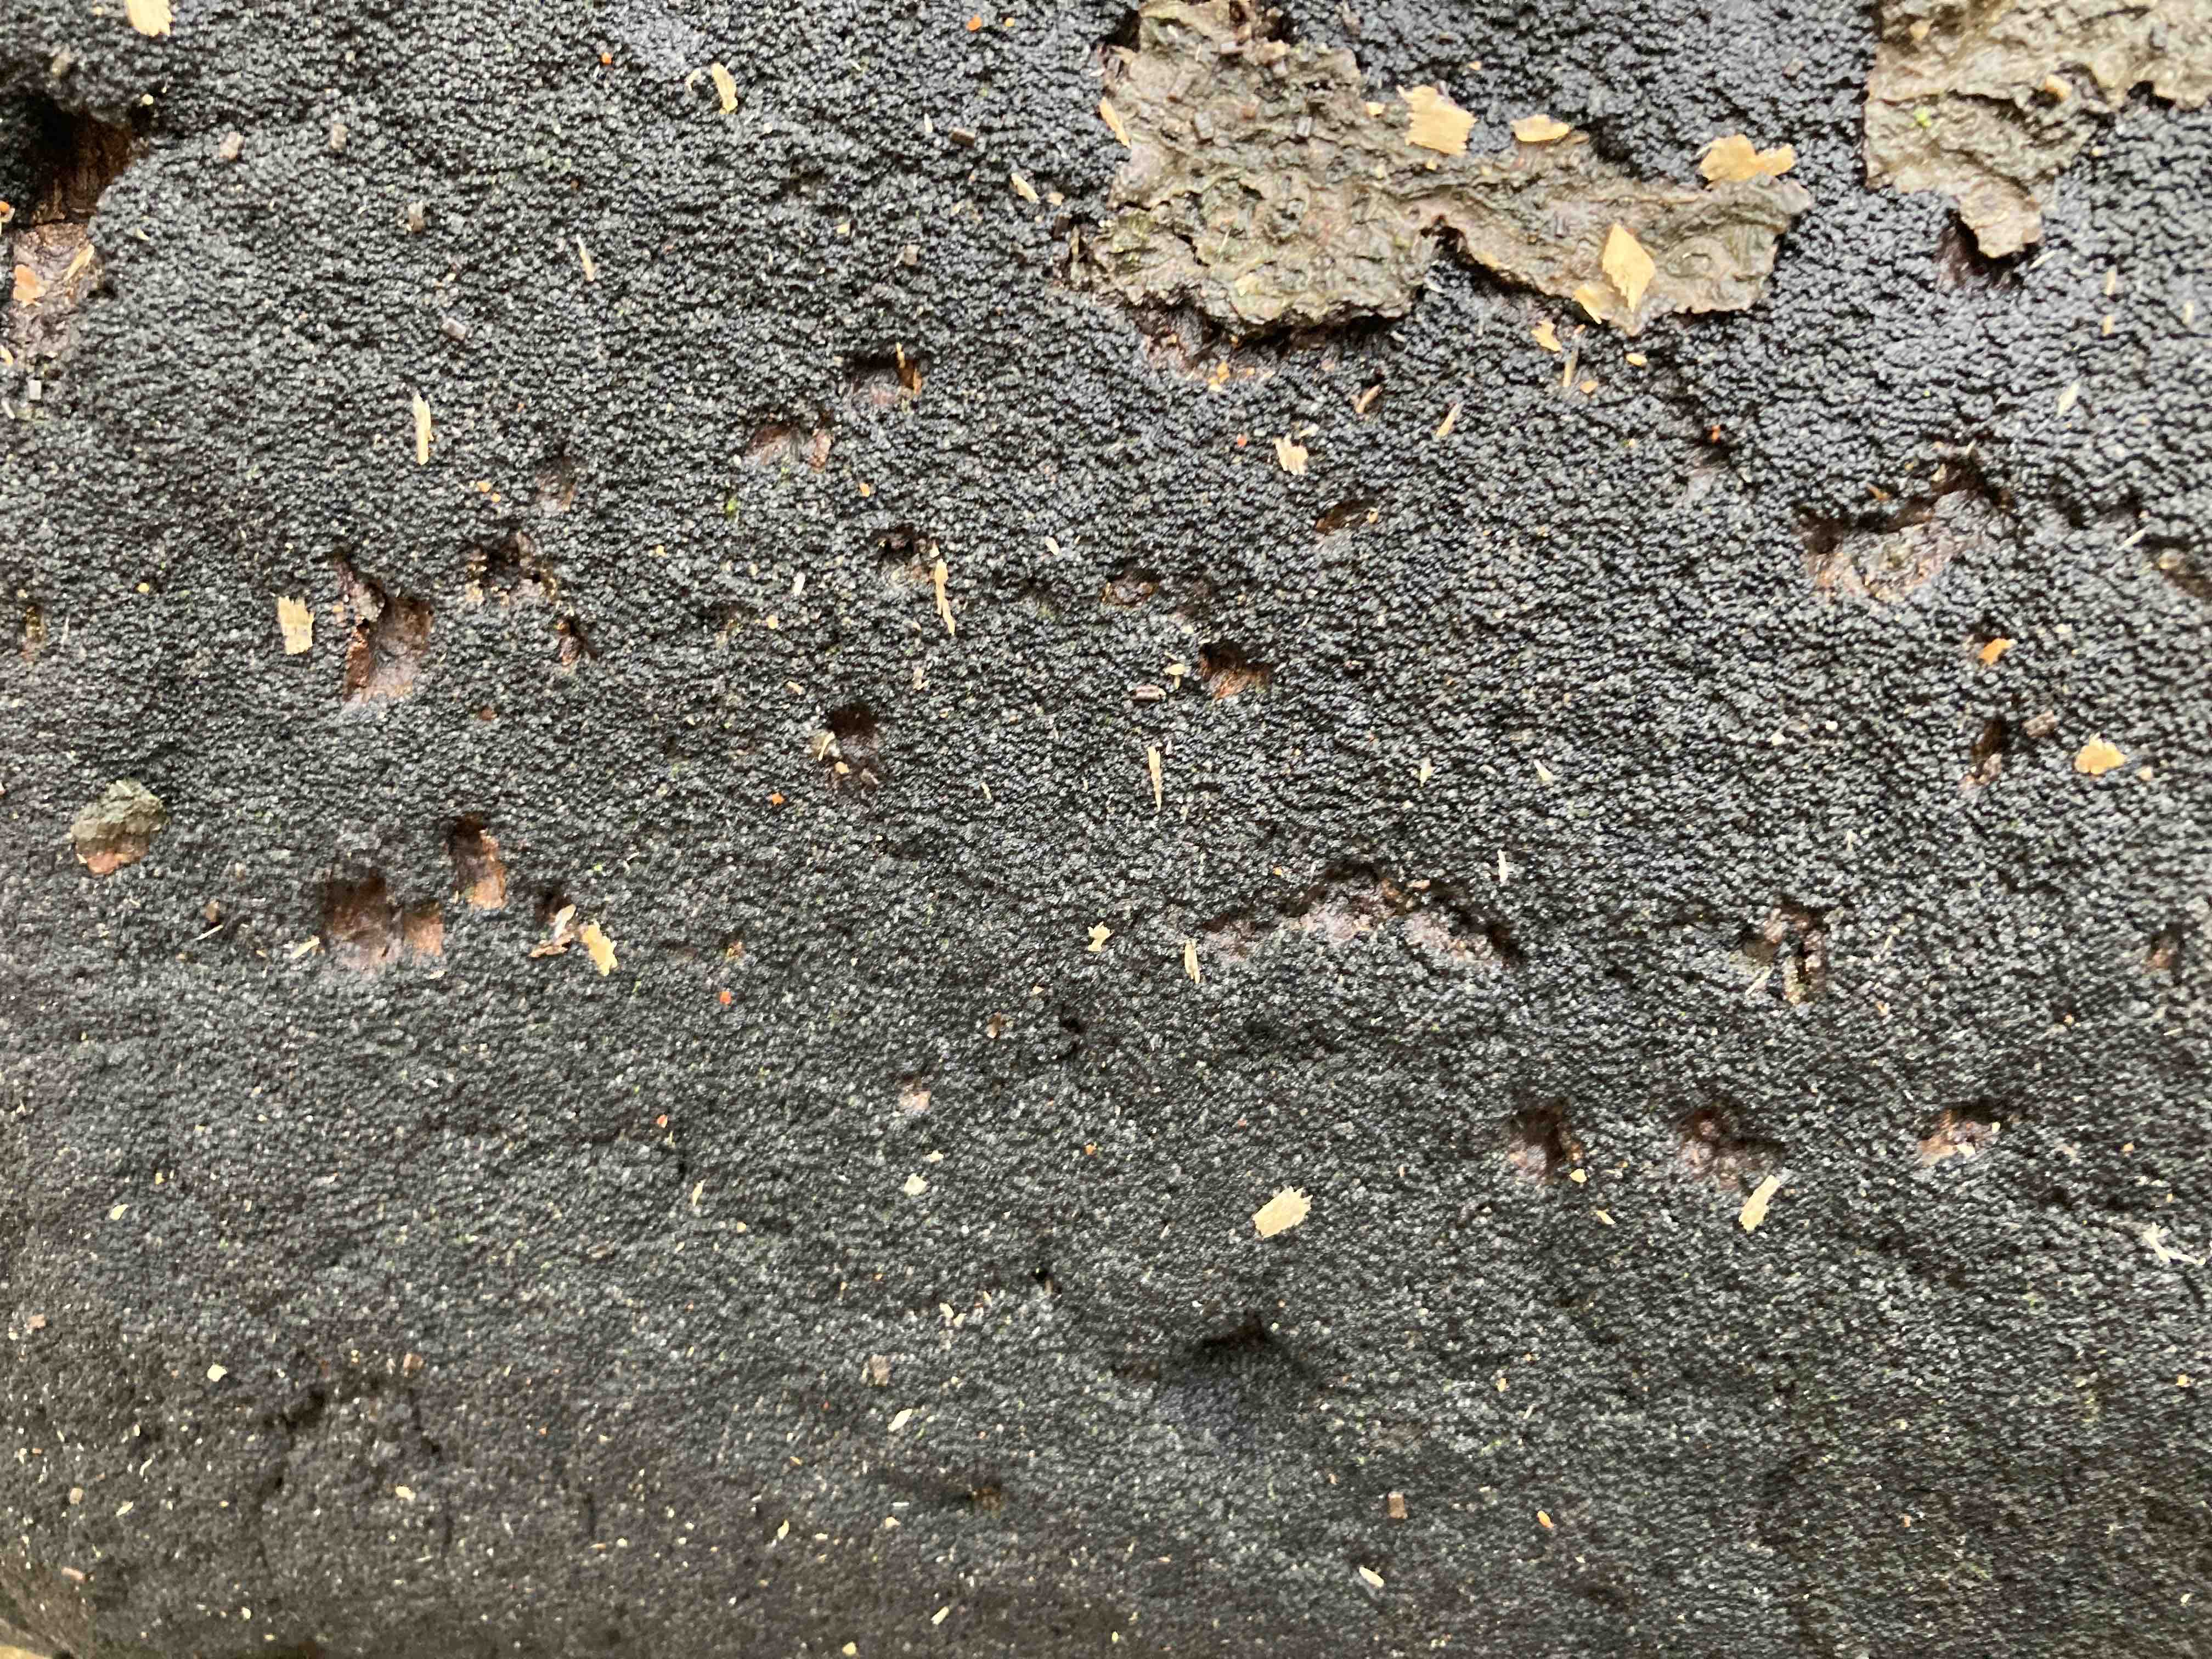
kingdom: Fungi
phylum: Ascomycota
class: Sordariomycetes
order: Xylariales
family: Diatrypaceae
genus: Eutypa
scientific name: Eutypa spinosa
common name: grov kulskorpe
